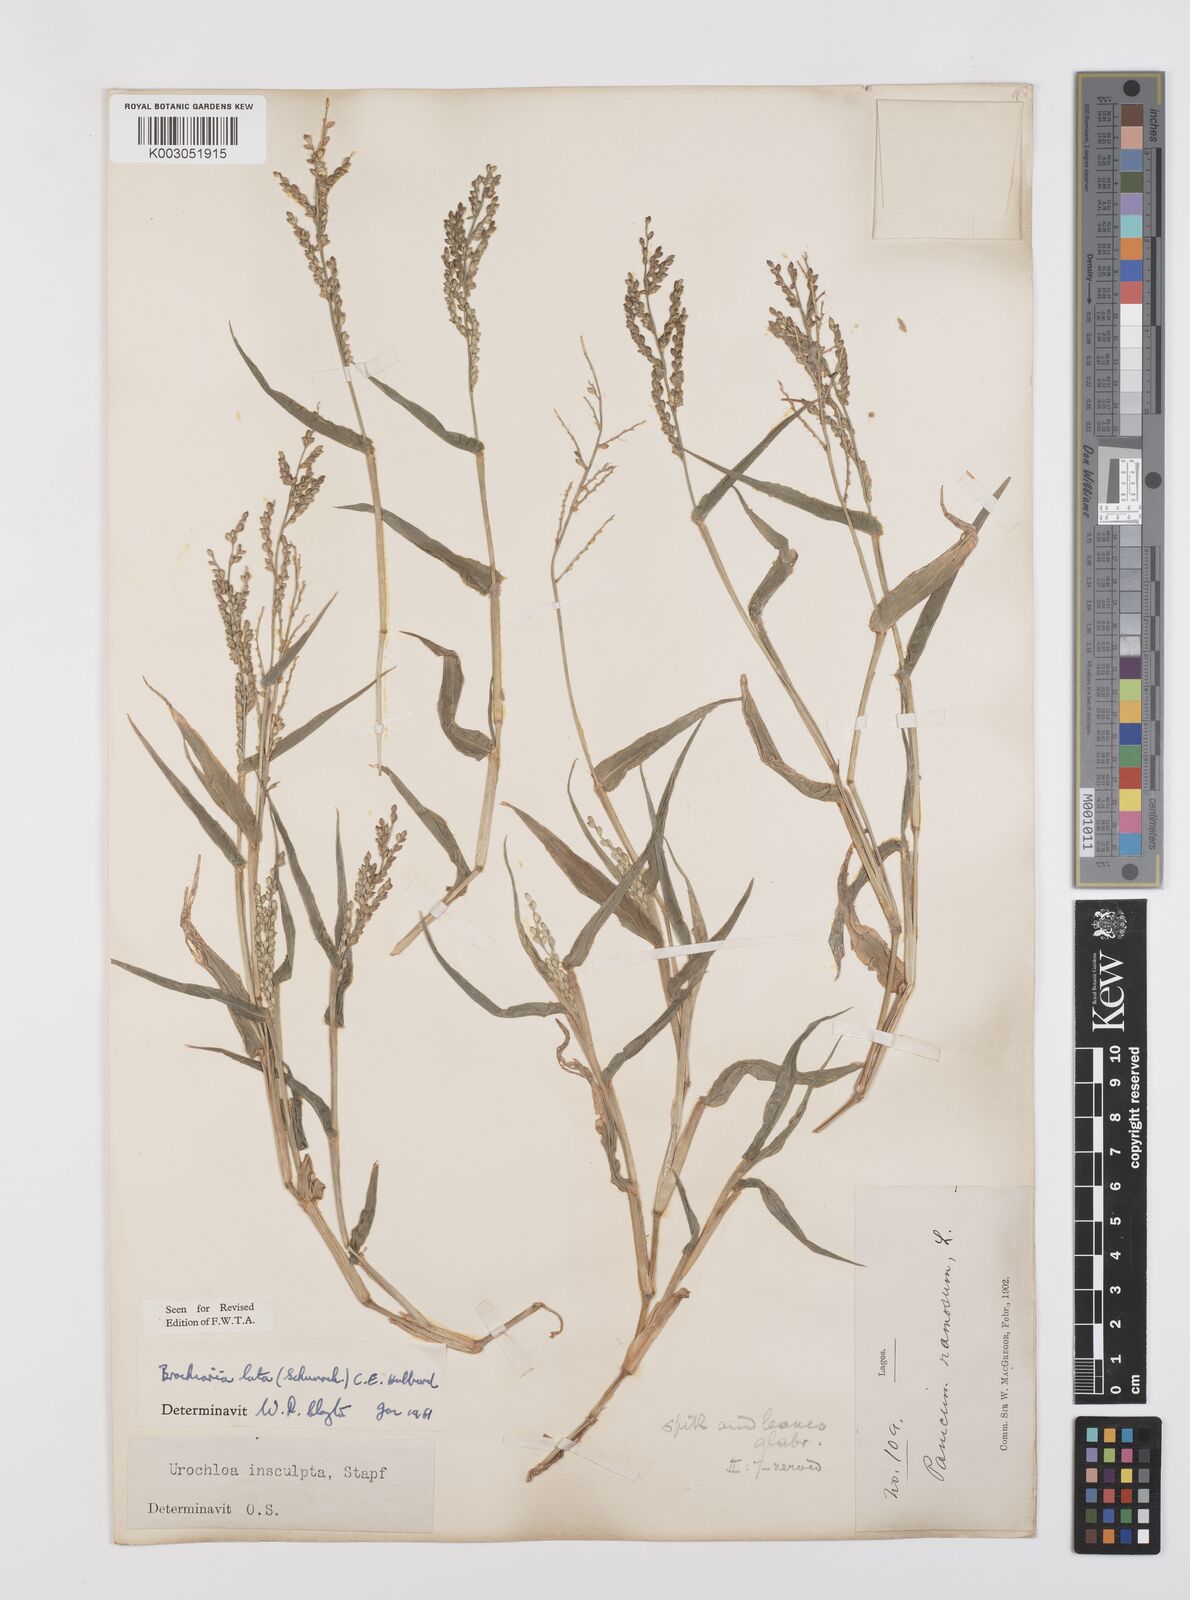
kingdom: Plantae
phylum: Tracheophyta
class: Liliopsida
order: Poales
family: Poaceae
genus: Urochloa
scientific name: Urochloa lata
